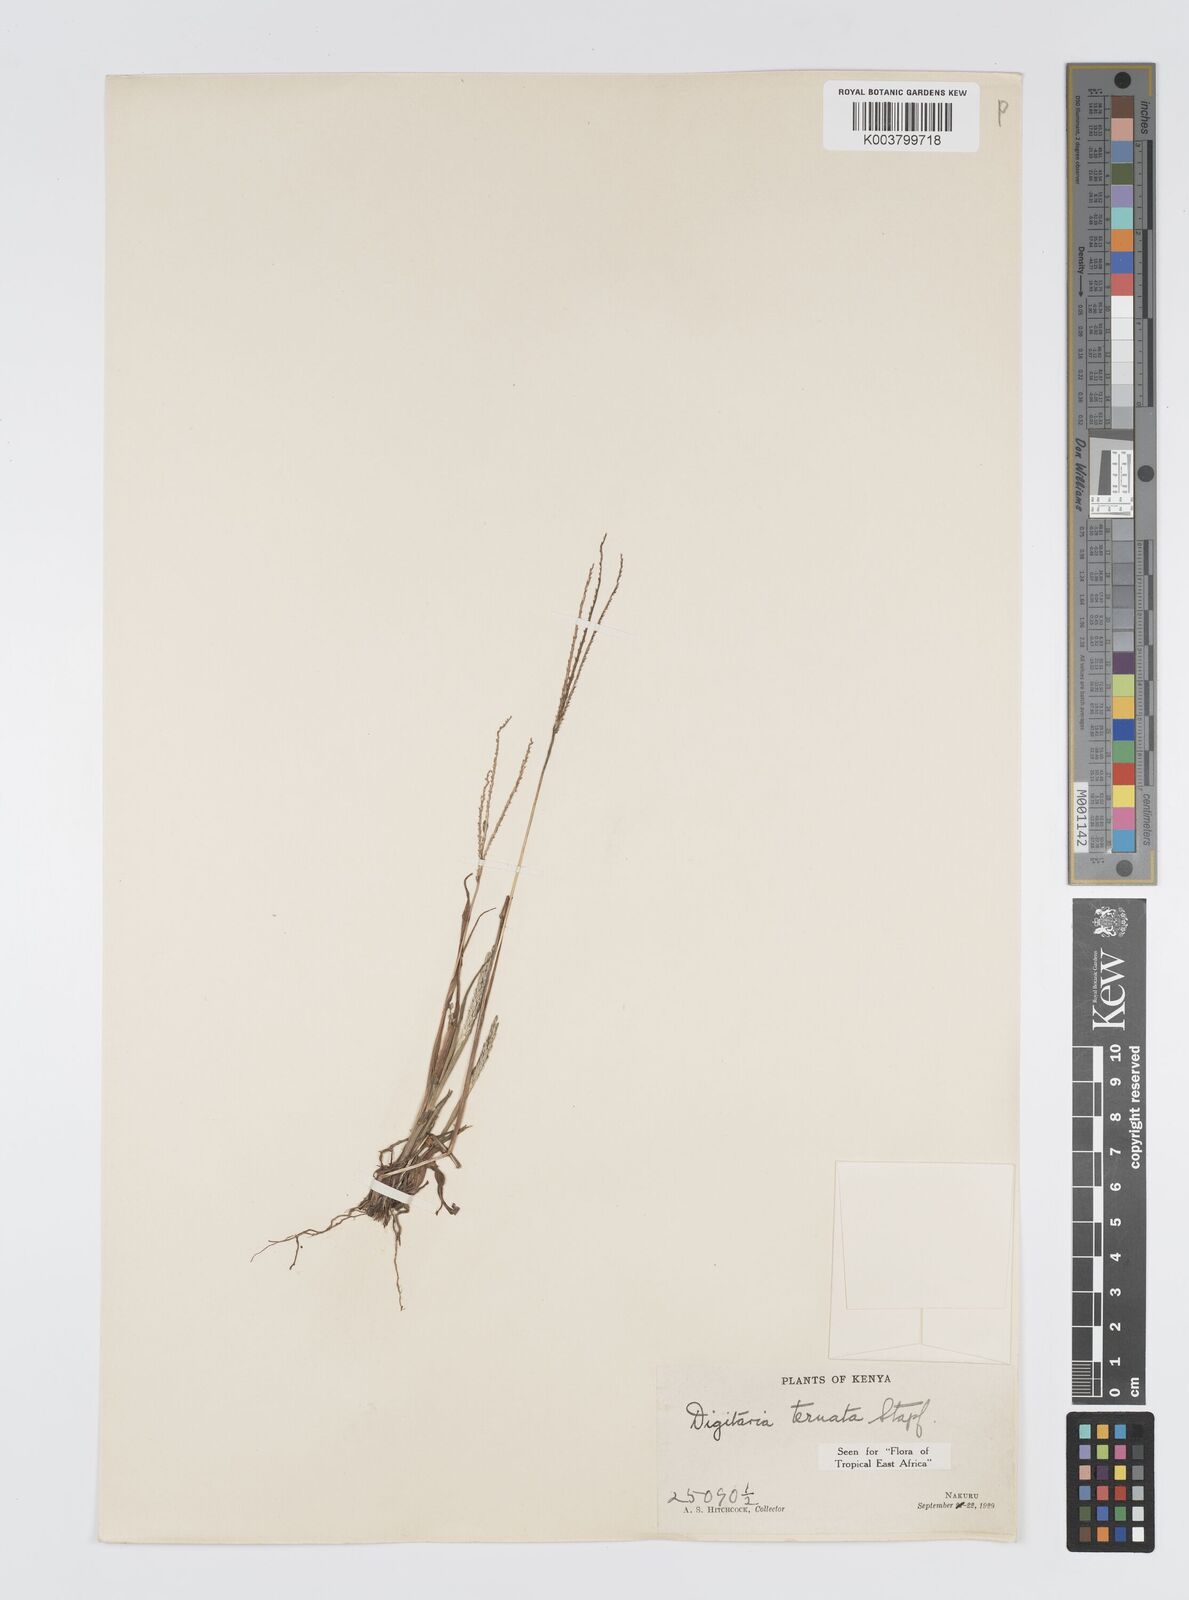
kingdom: Plantae
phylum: Tracheophyta
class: Liliopsida
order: Poales
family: Poaceae
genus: Digitaria
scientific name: Digitaria ternata
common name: Blackseed crabgrass
